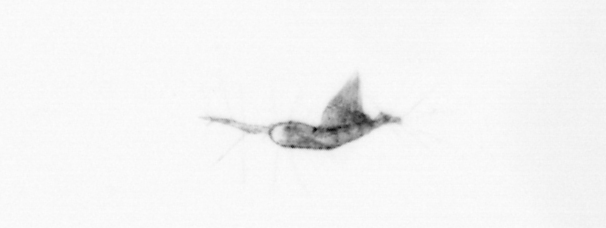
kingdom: Animalia
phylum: Arthropoda
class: Copepoda
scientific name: Copepoda
